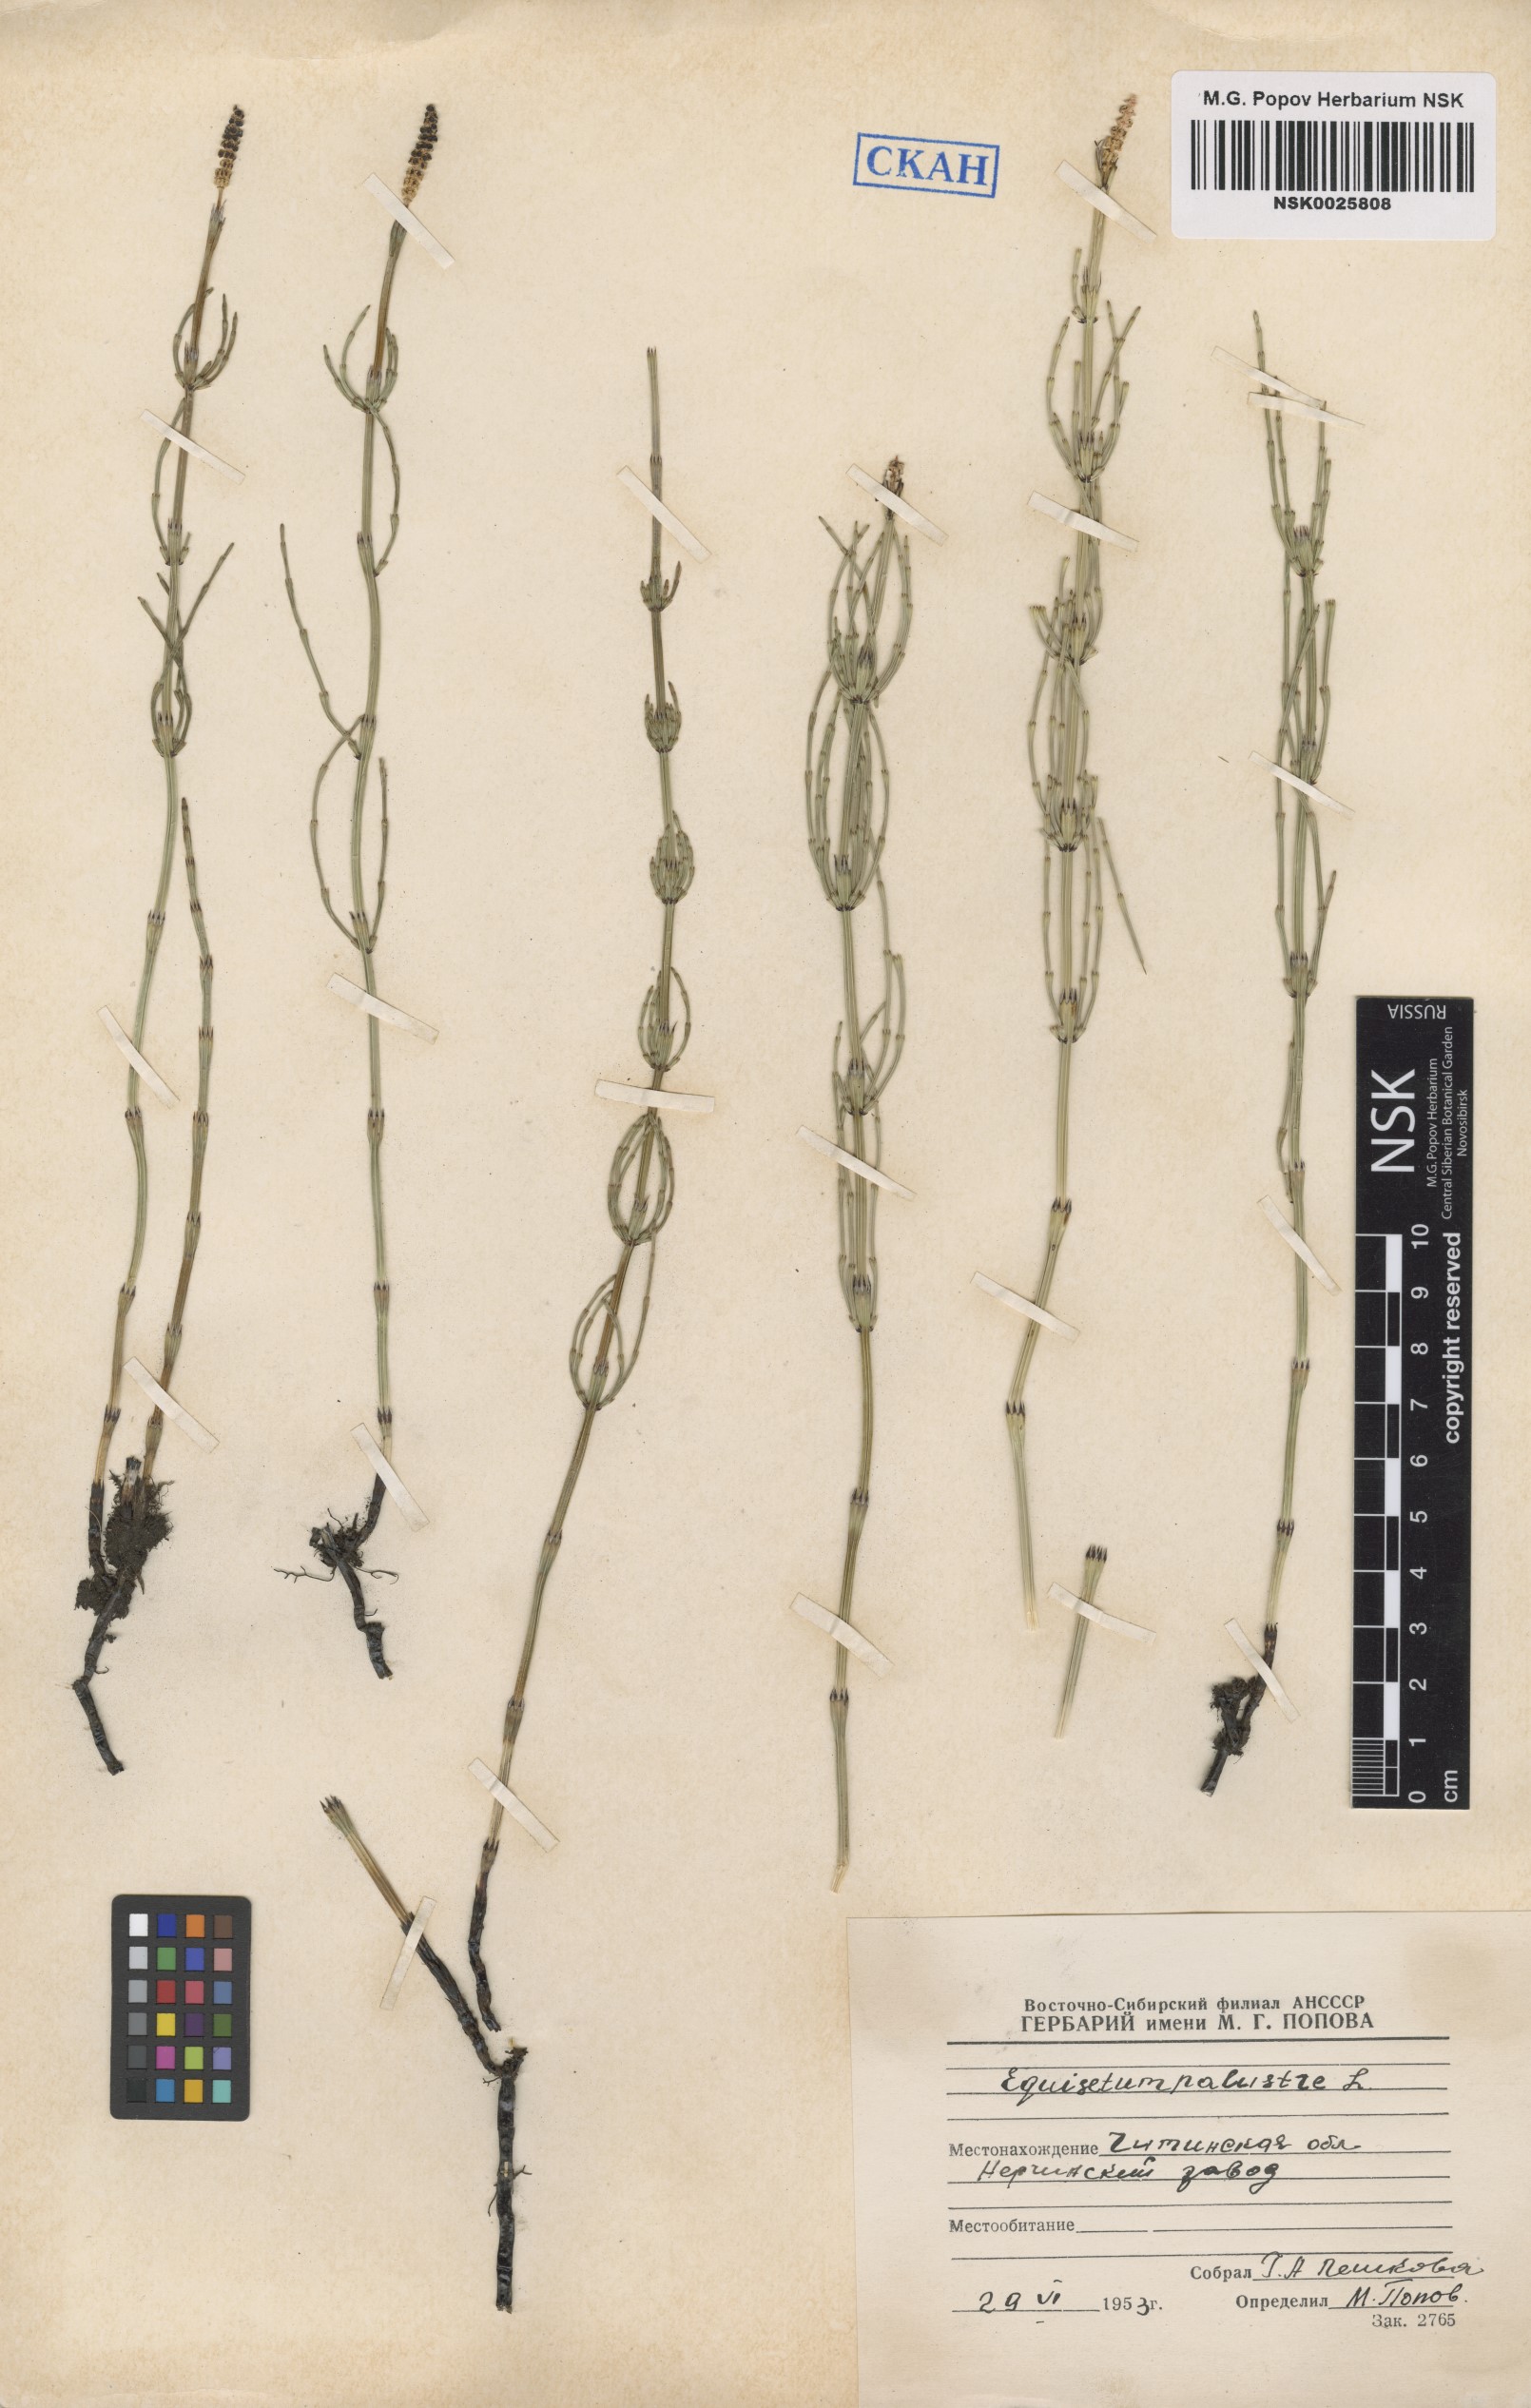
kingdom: Plantae
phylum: Tracheophyta
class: Polypodiopsida
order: Equisetales
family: Equisetaceae
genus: Equisetum
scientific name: Equisetum palustre
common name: Marsh horsetail
